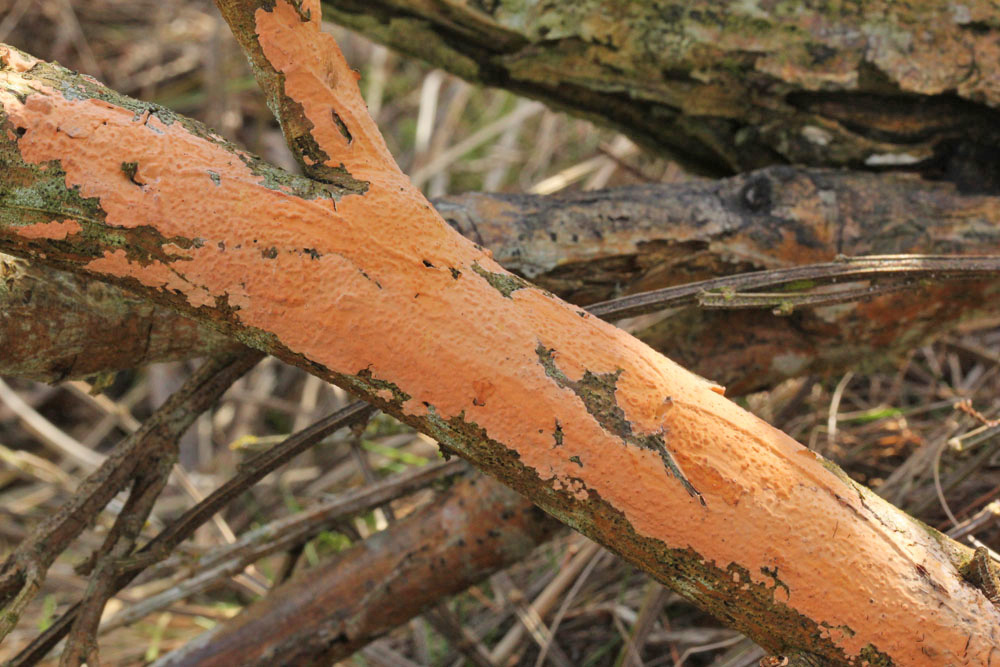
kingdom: Fungi
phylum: Basidiomycota
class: Agaricomycetes
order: Russulales
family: Peniophoraceae
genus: Peniophora
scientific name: Peniophora incarnata
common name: laksefarvet voksskind
